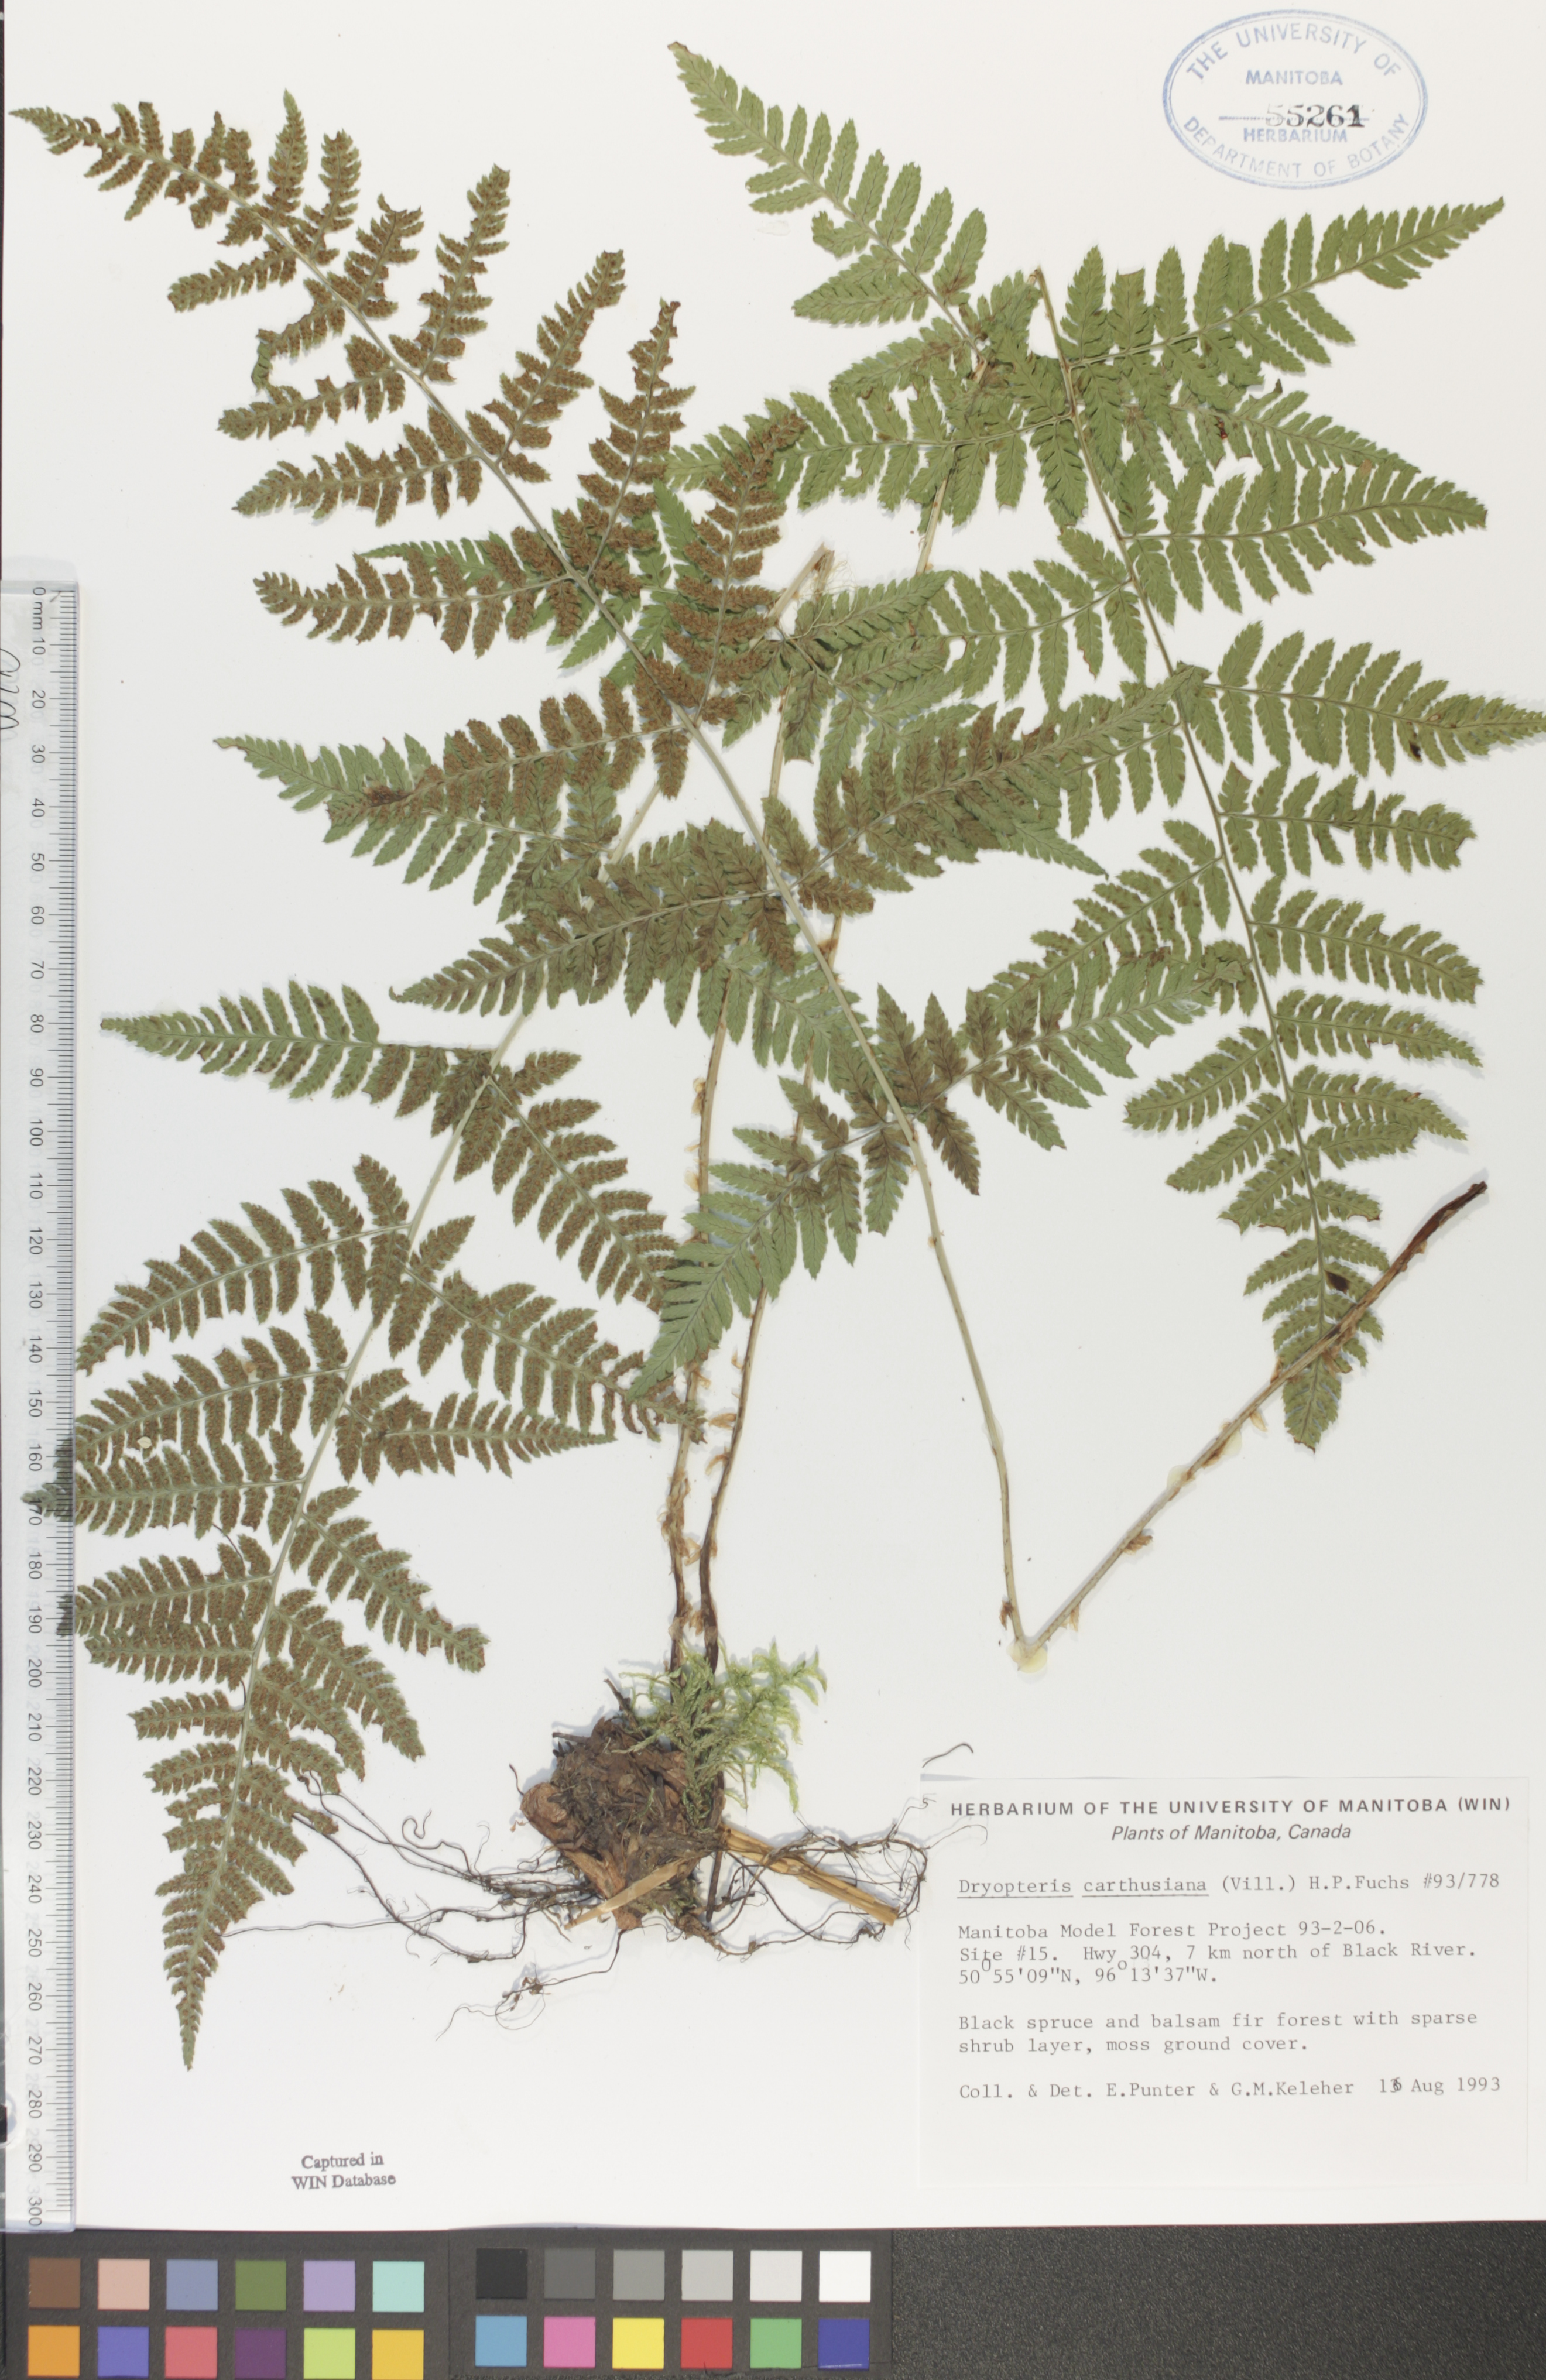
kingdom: Plantae
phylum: Tracheophyta
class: Polypodiopsida
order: Polypodiales
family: Dryopteridaceae
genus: Dryopteris
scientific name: Dryopteris carthusiana
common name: Narrow buckler-fern
